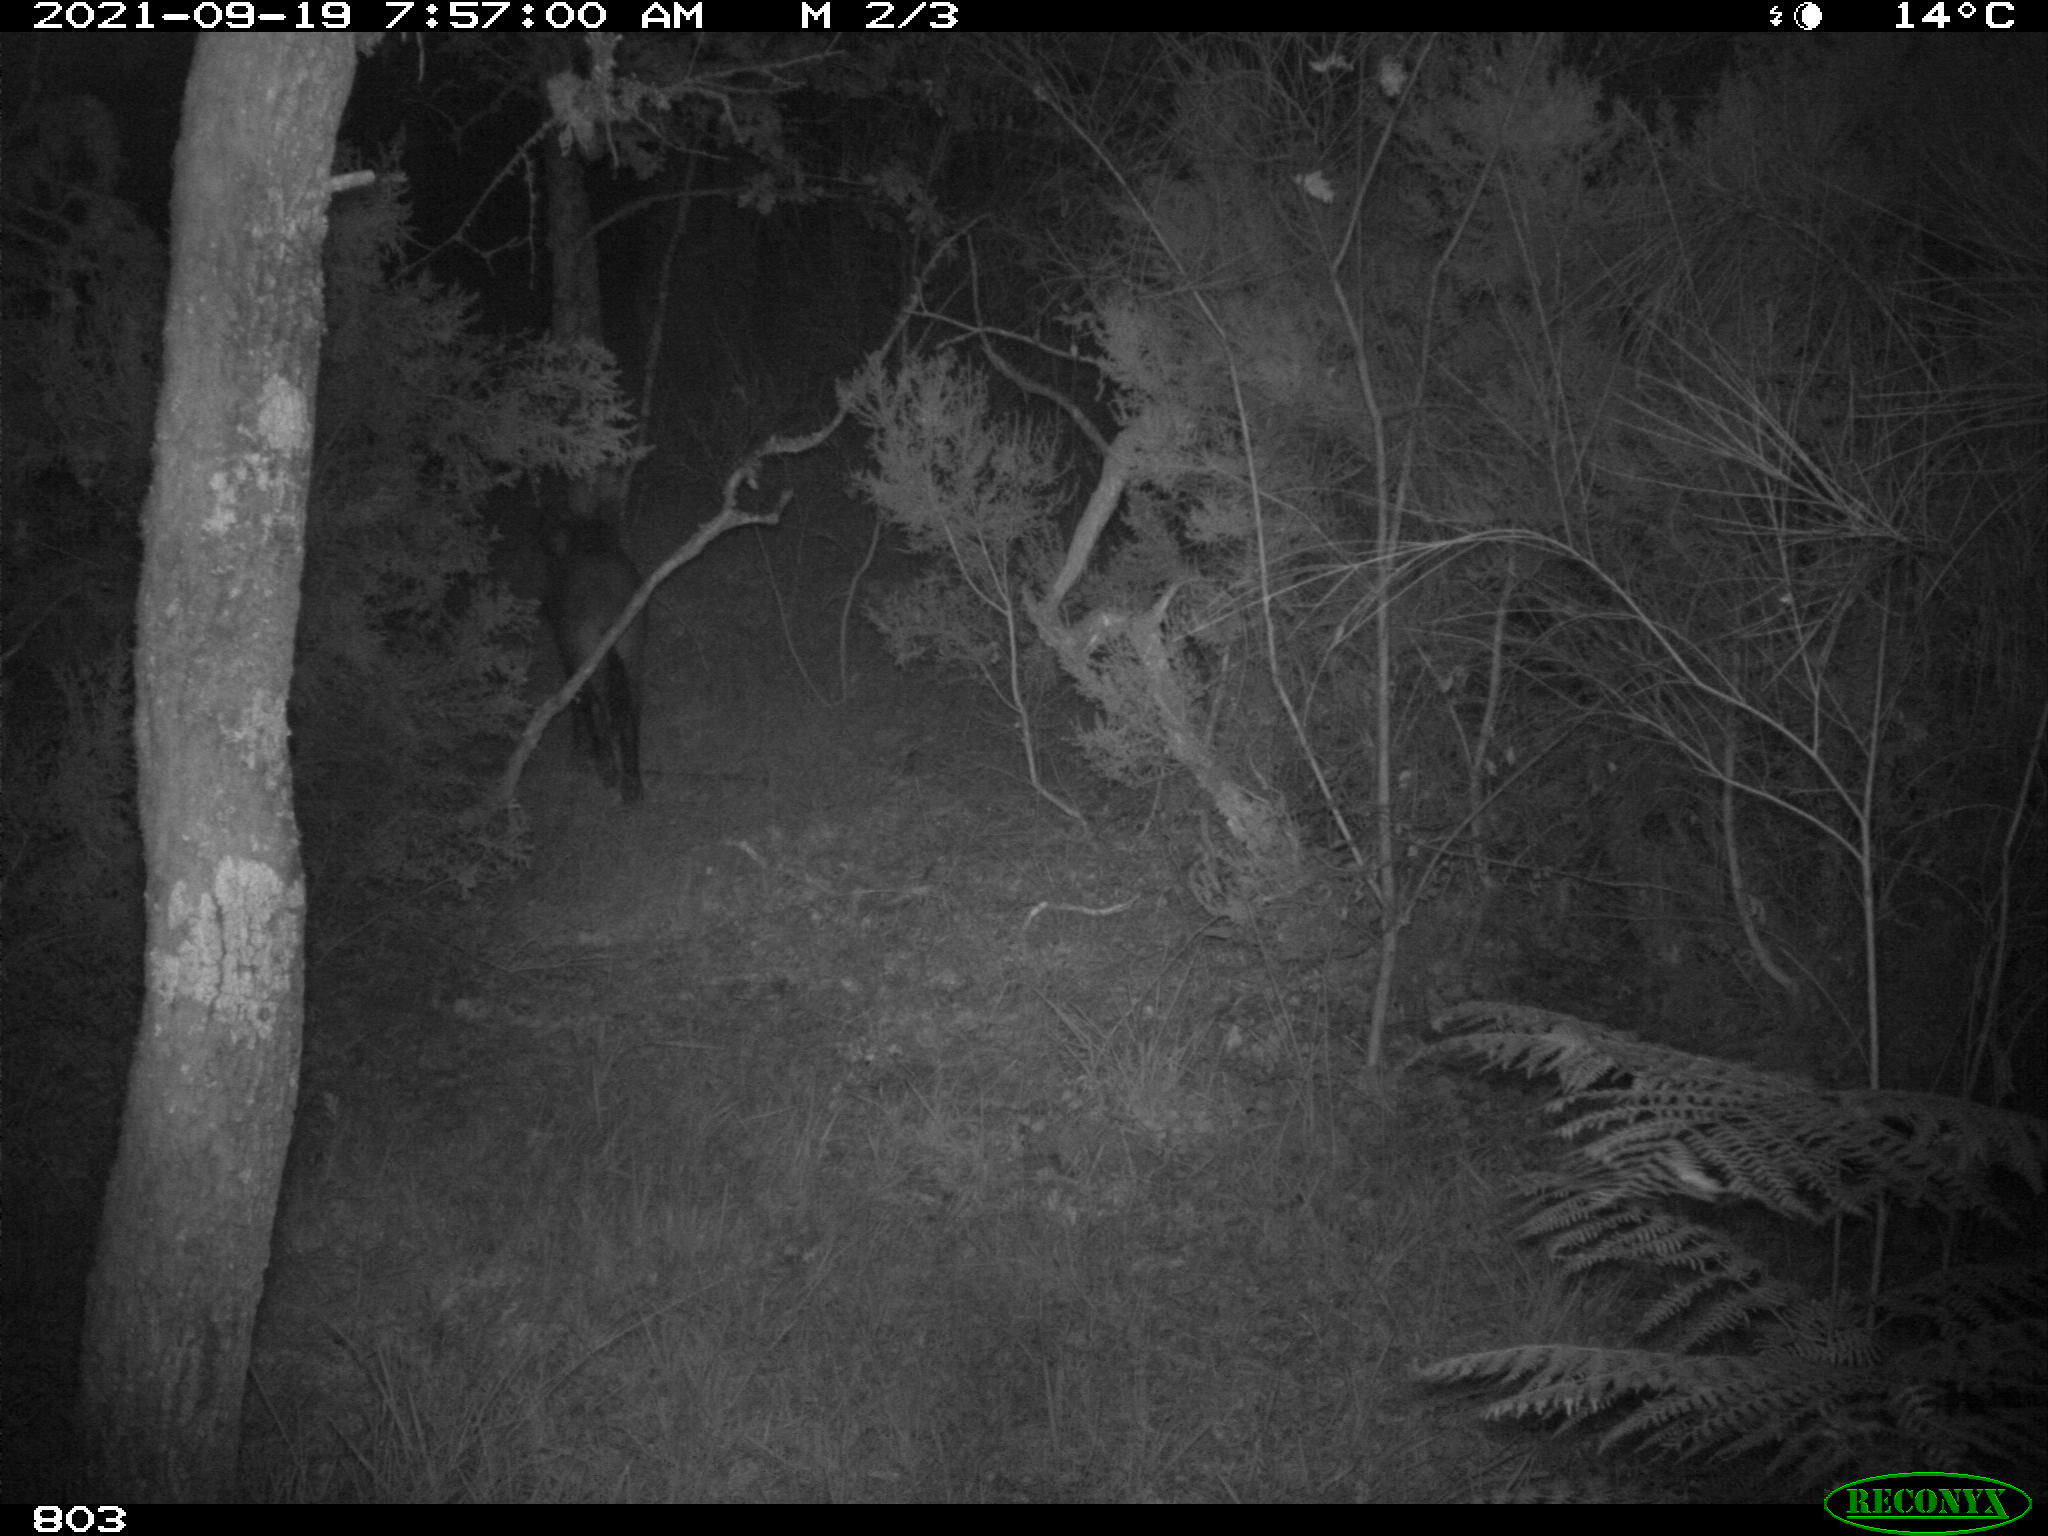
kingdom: Animalia
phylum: Chordata
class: Mammalia
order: Artiodactyla
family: Suidae
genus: Sus
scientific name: Sus scrofa
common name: Wild boar
